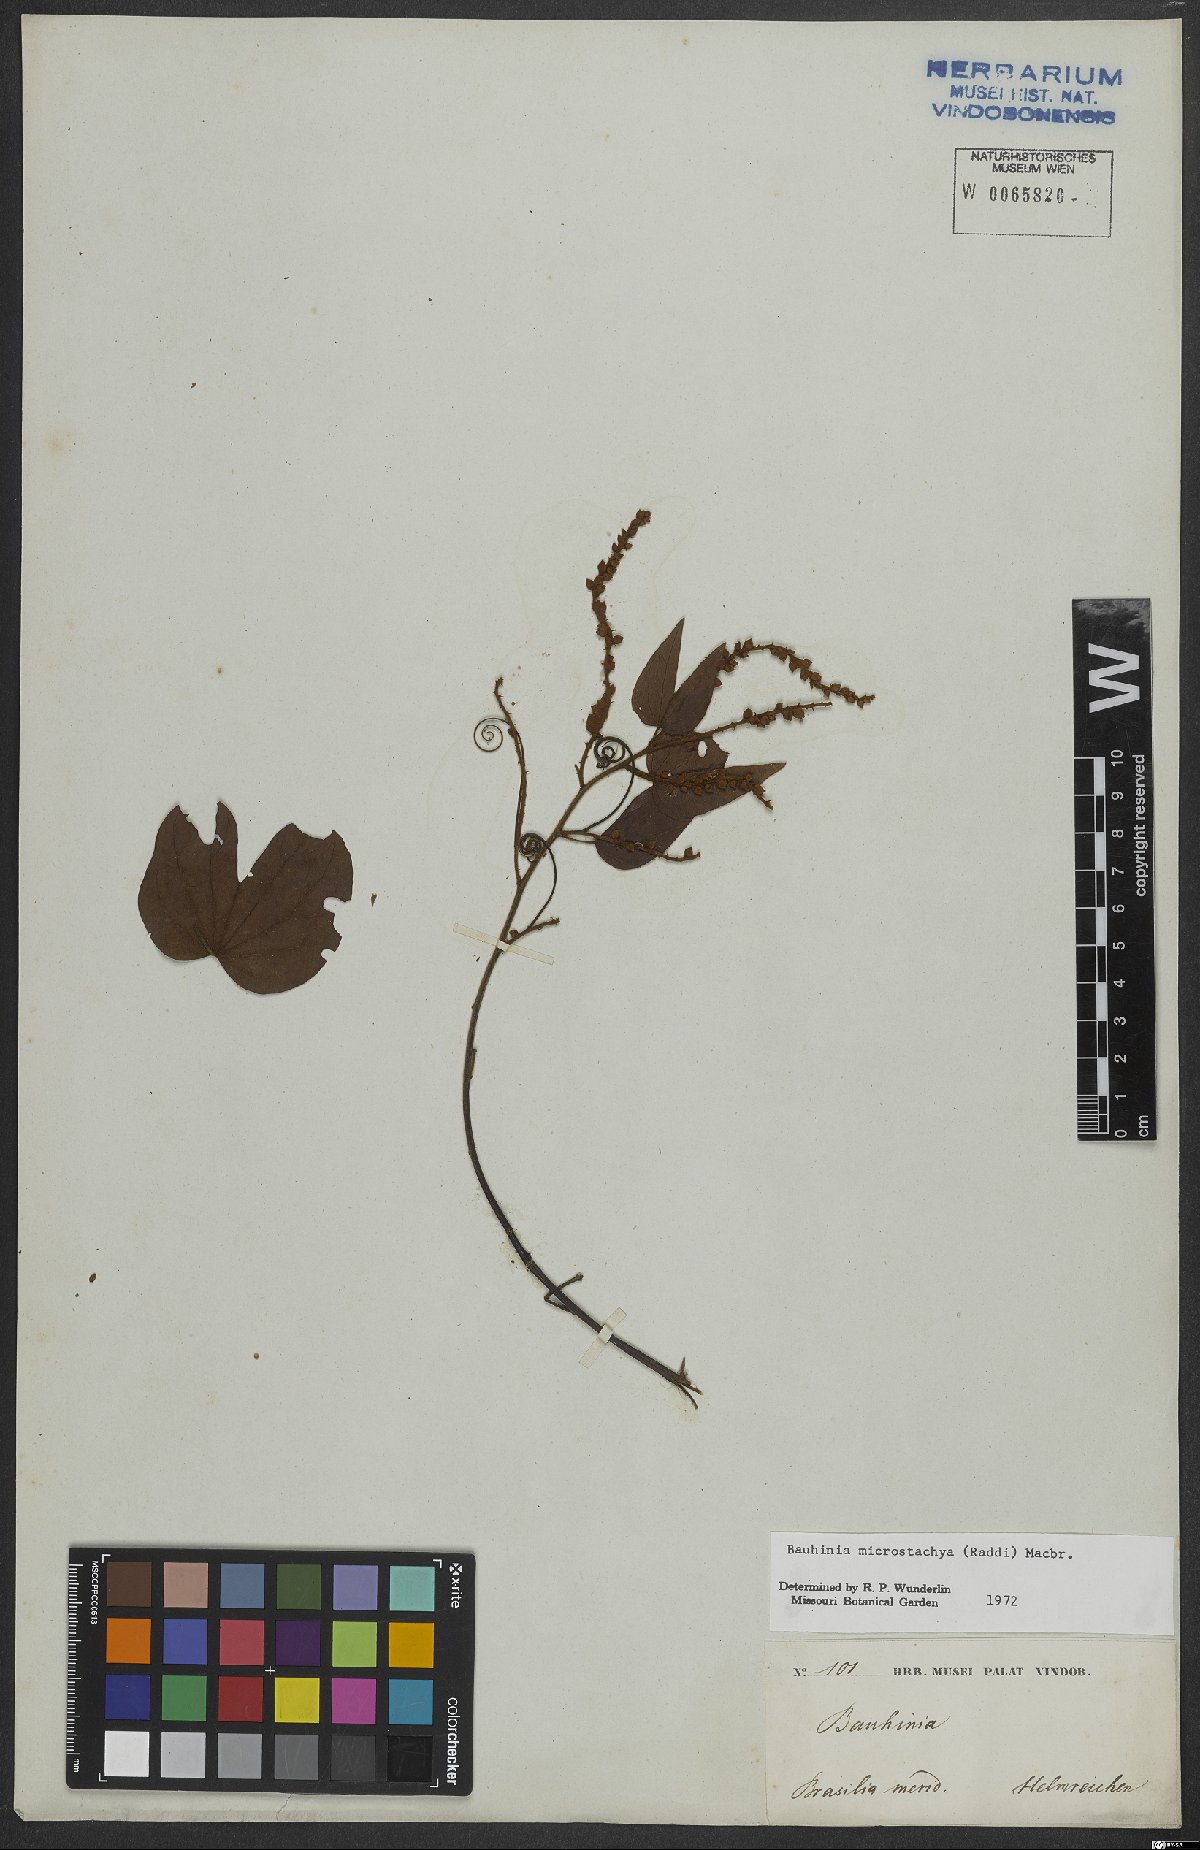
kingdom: Plantae
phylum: Tracheophyta
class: Magnoliopsida
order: Fabales
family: Fabaceae
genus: Schnella
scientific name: Schnella microstachya
